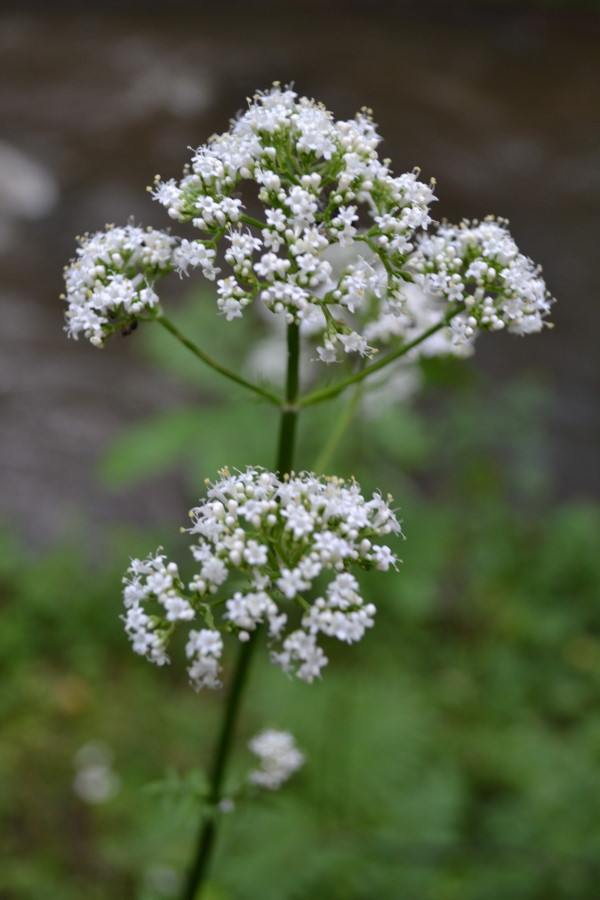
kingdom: Plantae
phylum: Tracheophyta
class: Magnoliopsida
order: Dipsacales
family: Caprifoliaceae
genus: Valeriana
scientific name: Valeriana officinalis
